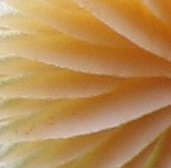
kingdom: Fungi
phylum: Basidiomycota
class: Agaricomycetes
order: Agaricales
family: Hymenogastraceae
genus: Galerina
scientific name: Galerina
